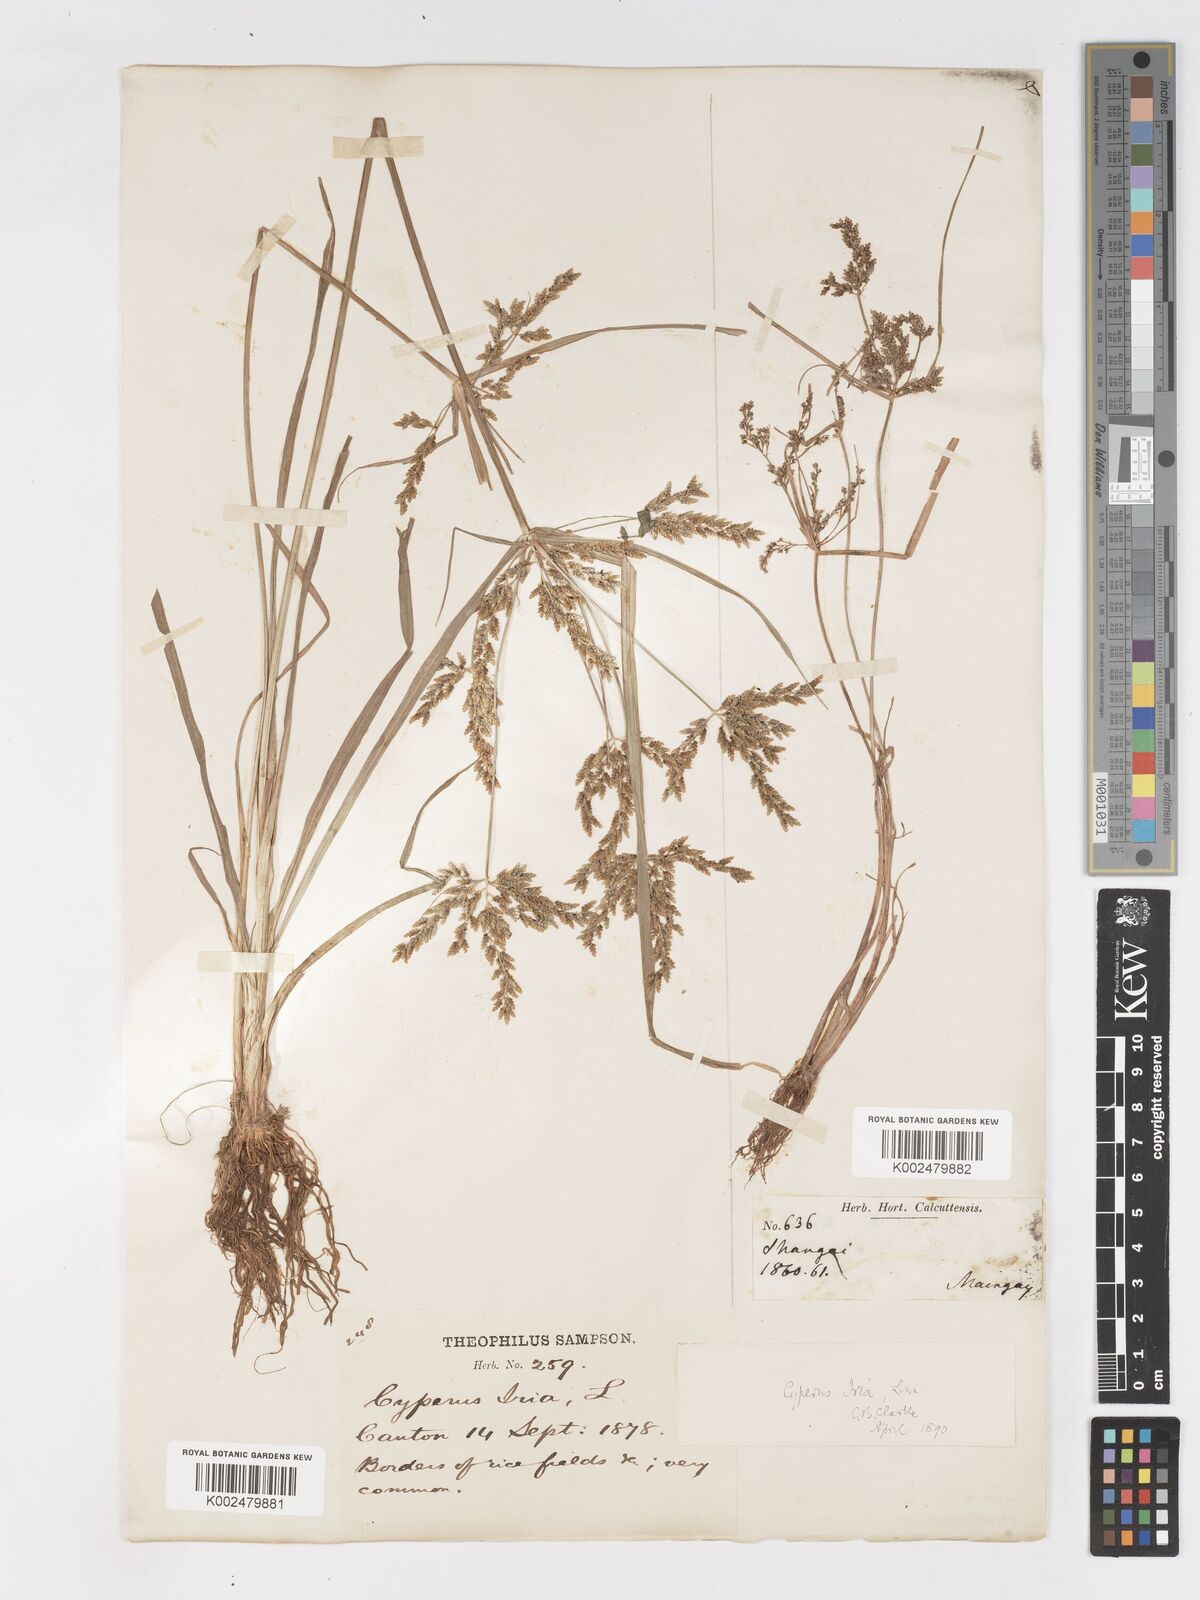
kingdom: Plantae
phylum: Tracheophyta
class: Liliopsida
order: Poales
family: Cyperaceae
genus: Cyperus
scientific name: Cyperus iria
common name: Ricefield flatsedge
